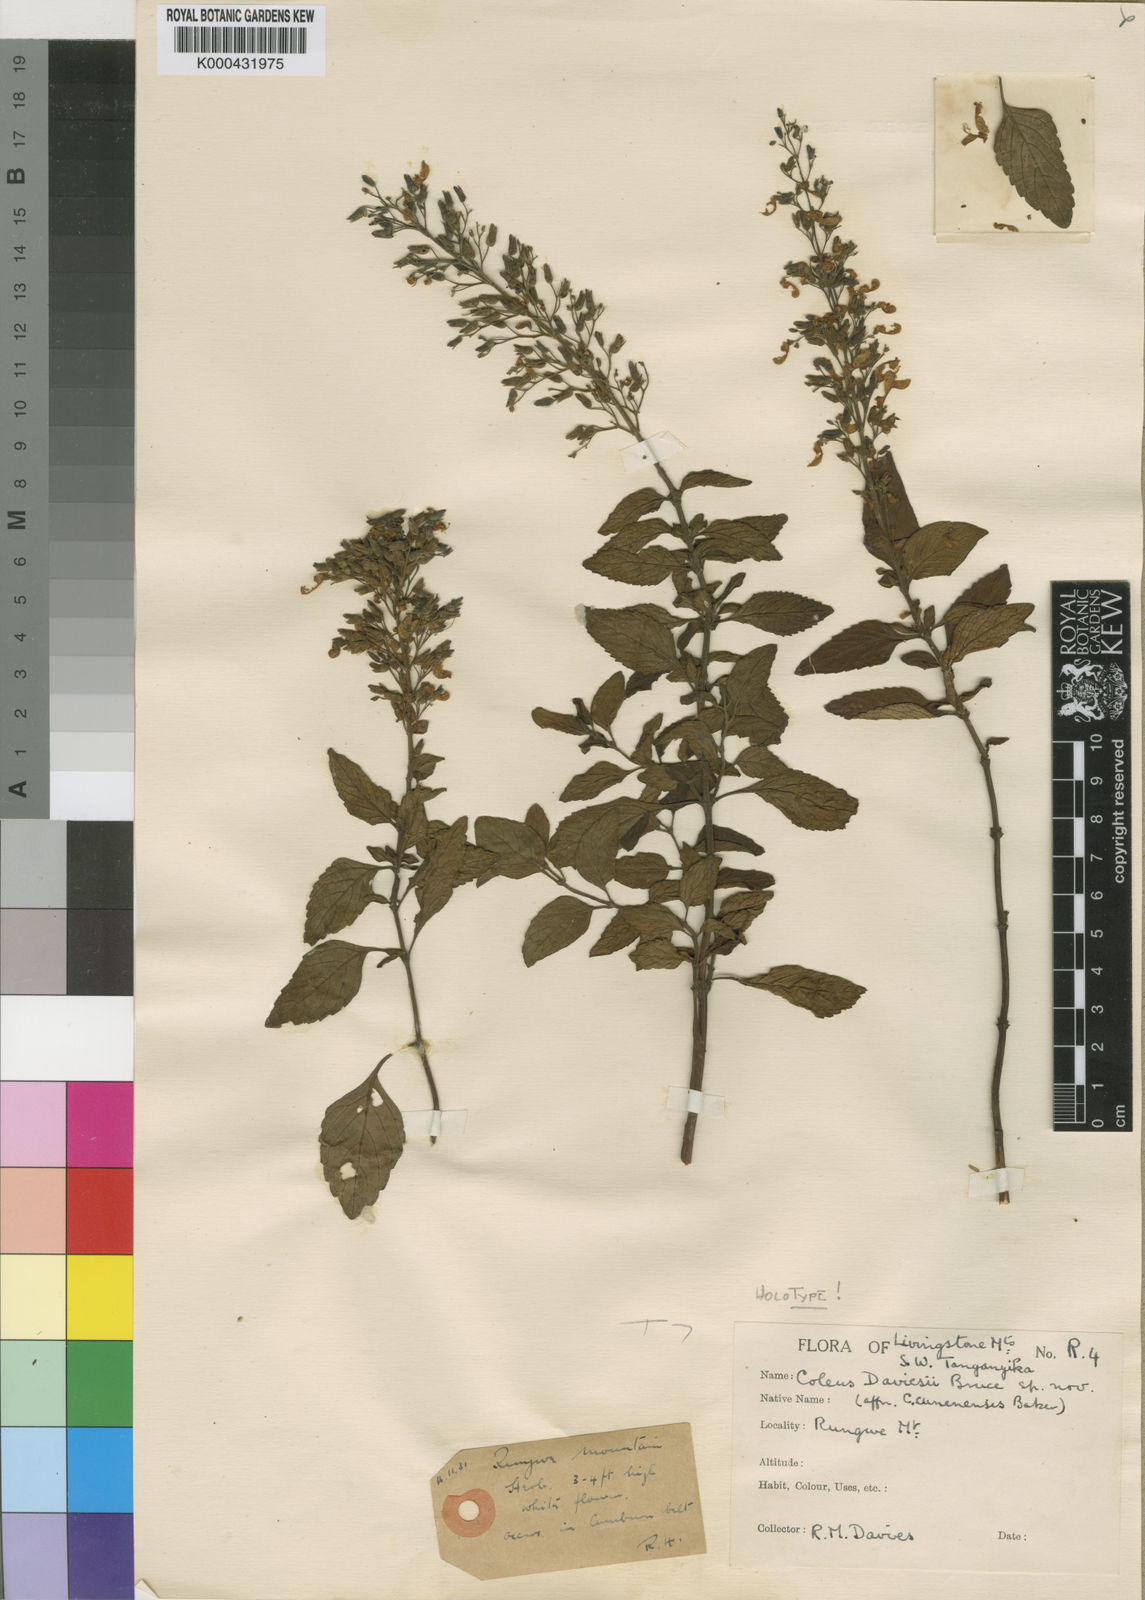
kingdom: Plantae
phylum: Tracheophyta
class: Magnoliopsida
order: Lamiales
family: Lamiaceae
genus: Coleus
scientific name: Coleus daviesii
